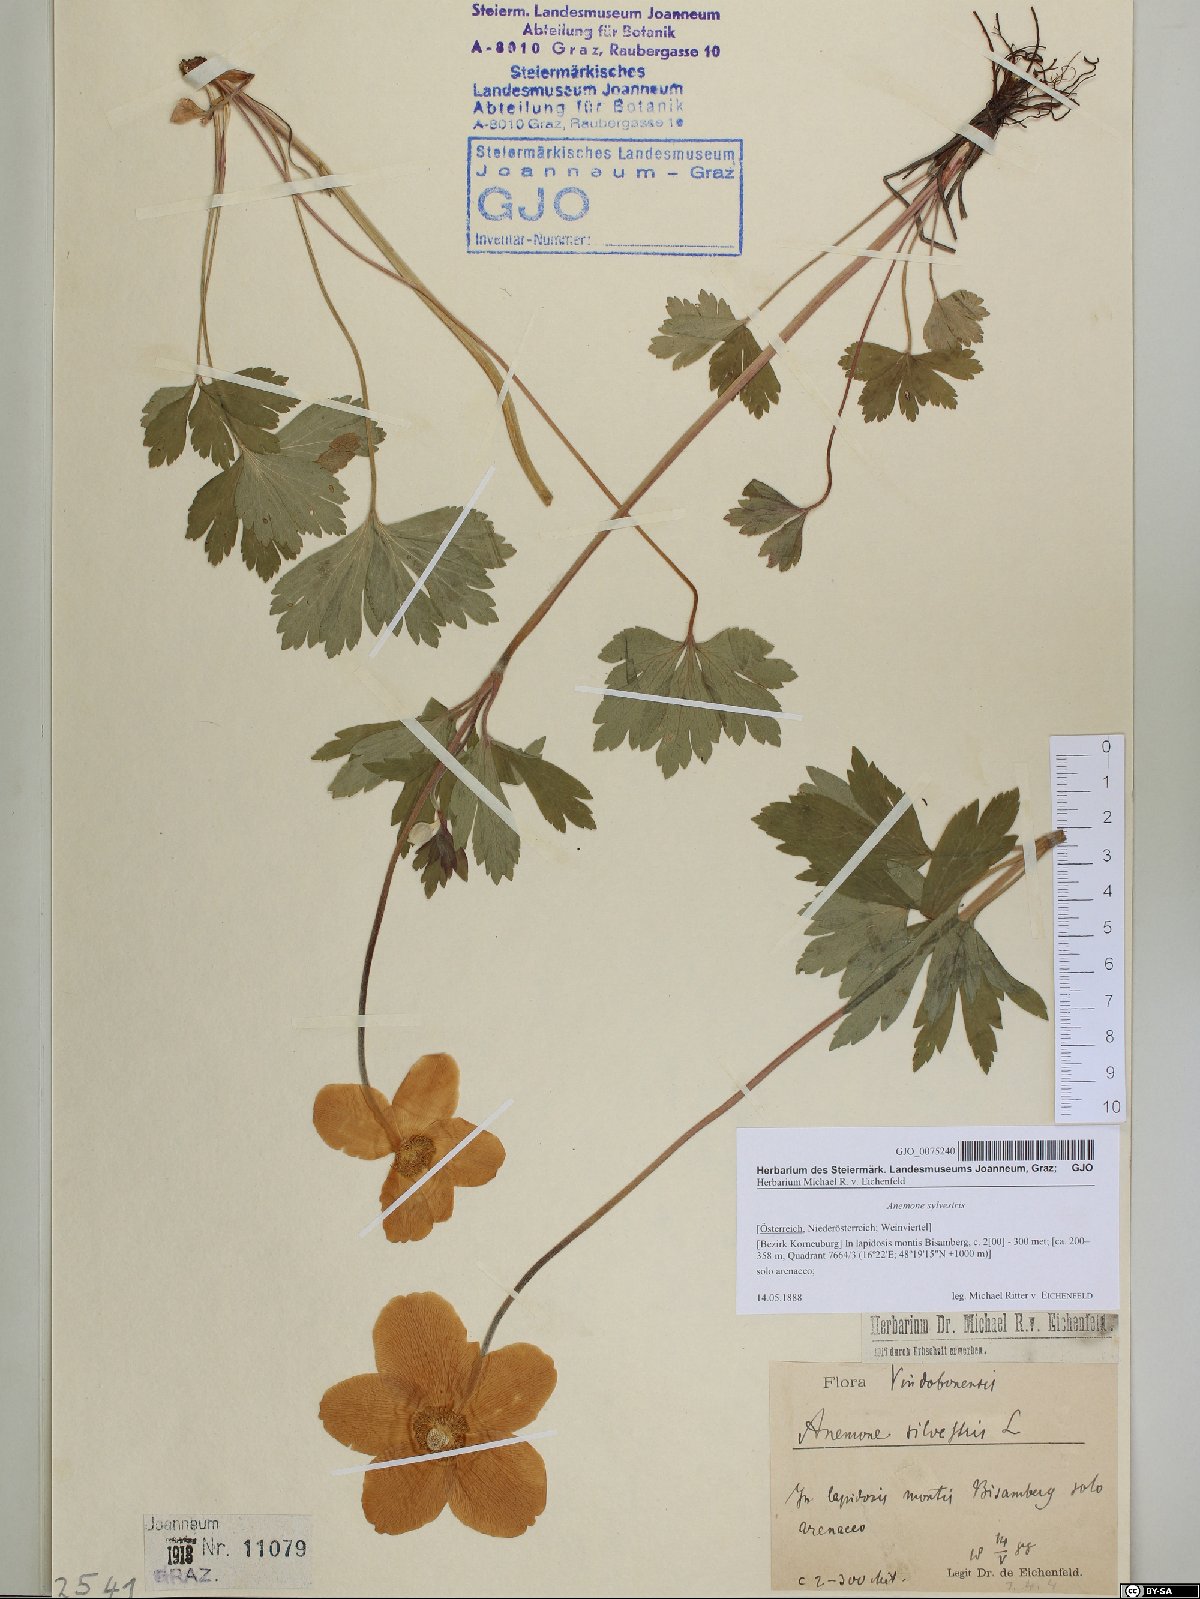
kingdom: Plantae
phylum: Tracheophyta
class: Magnoliopsida
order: Ranunculales
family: Ranunculaceae
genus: Anemone
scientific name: Anemone sylvestris
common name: Snowdrop anemone
